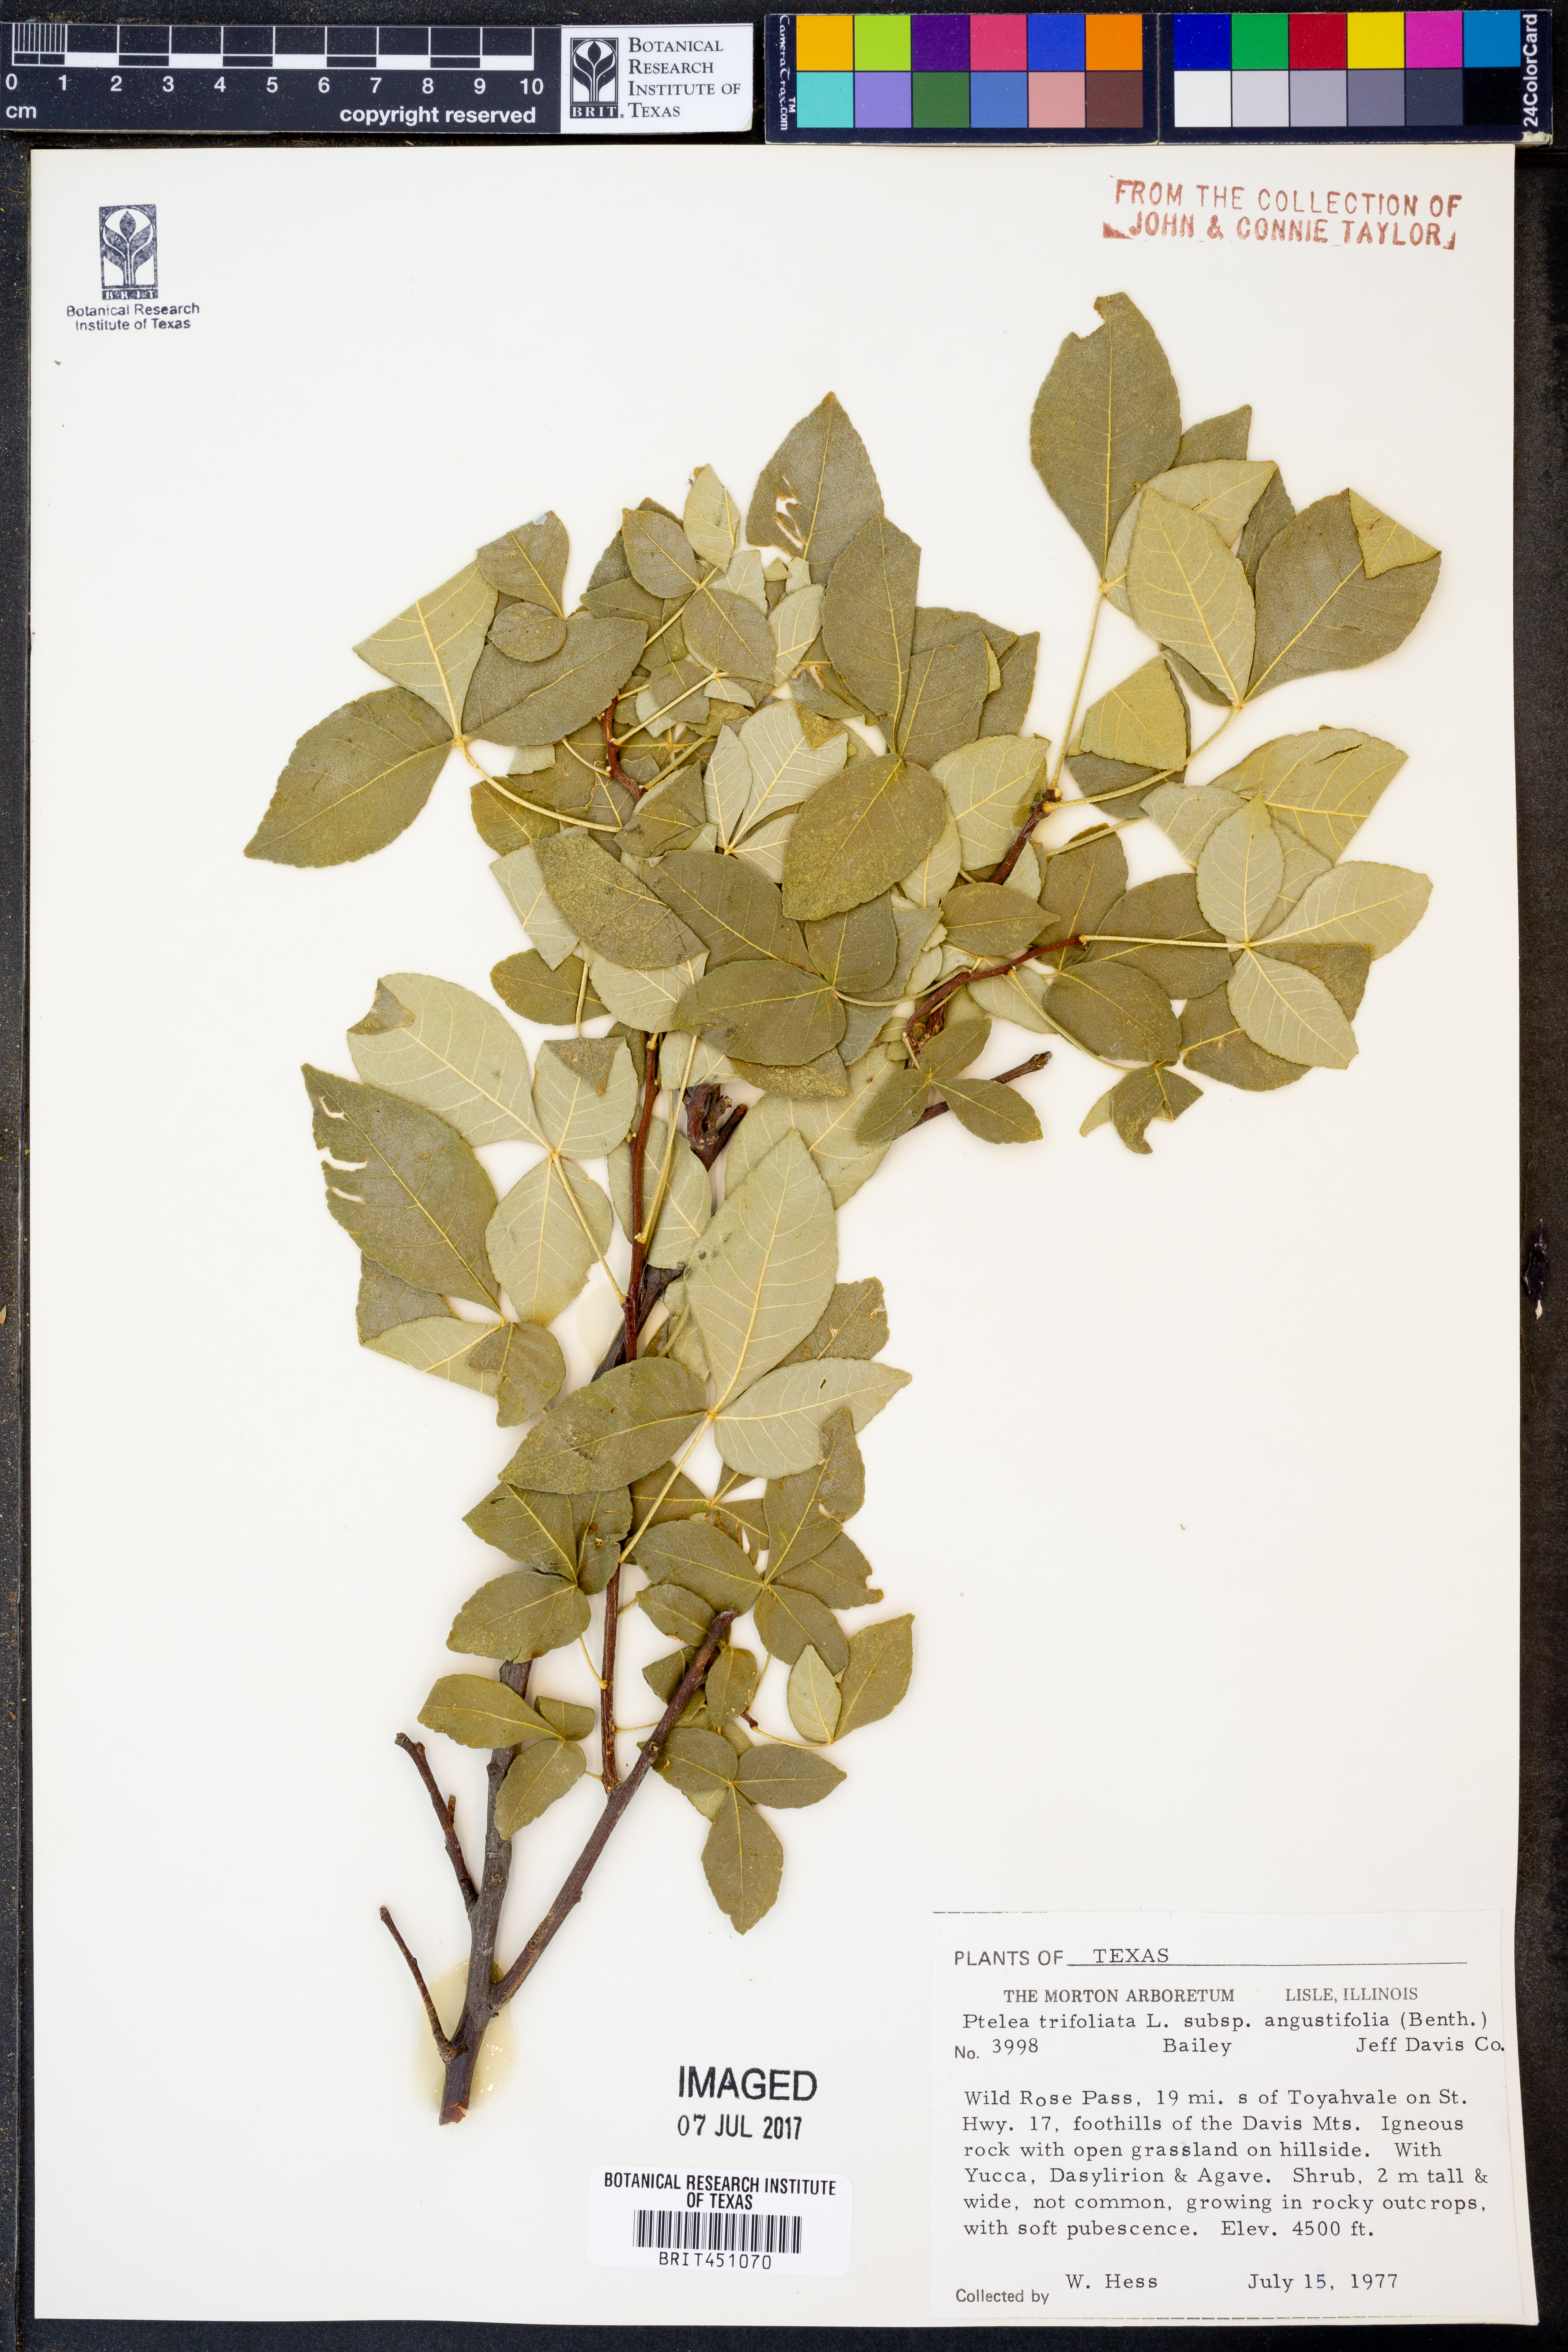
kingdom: Plantae
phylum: Tracheophyta
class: Magnoliopsida
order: Sapindales
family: Rutaceae
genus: Ptelea
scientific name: Ptelea trifoliata
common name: Common hop-tree
